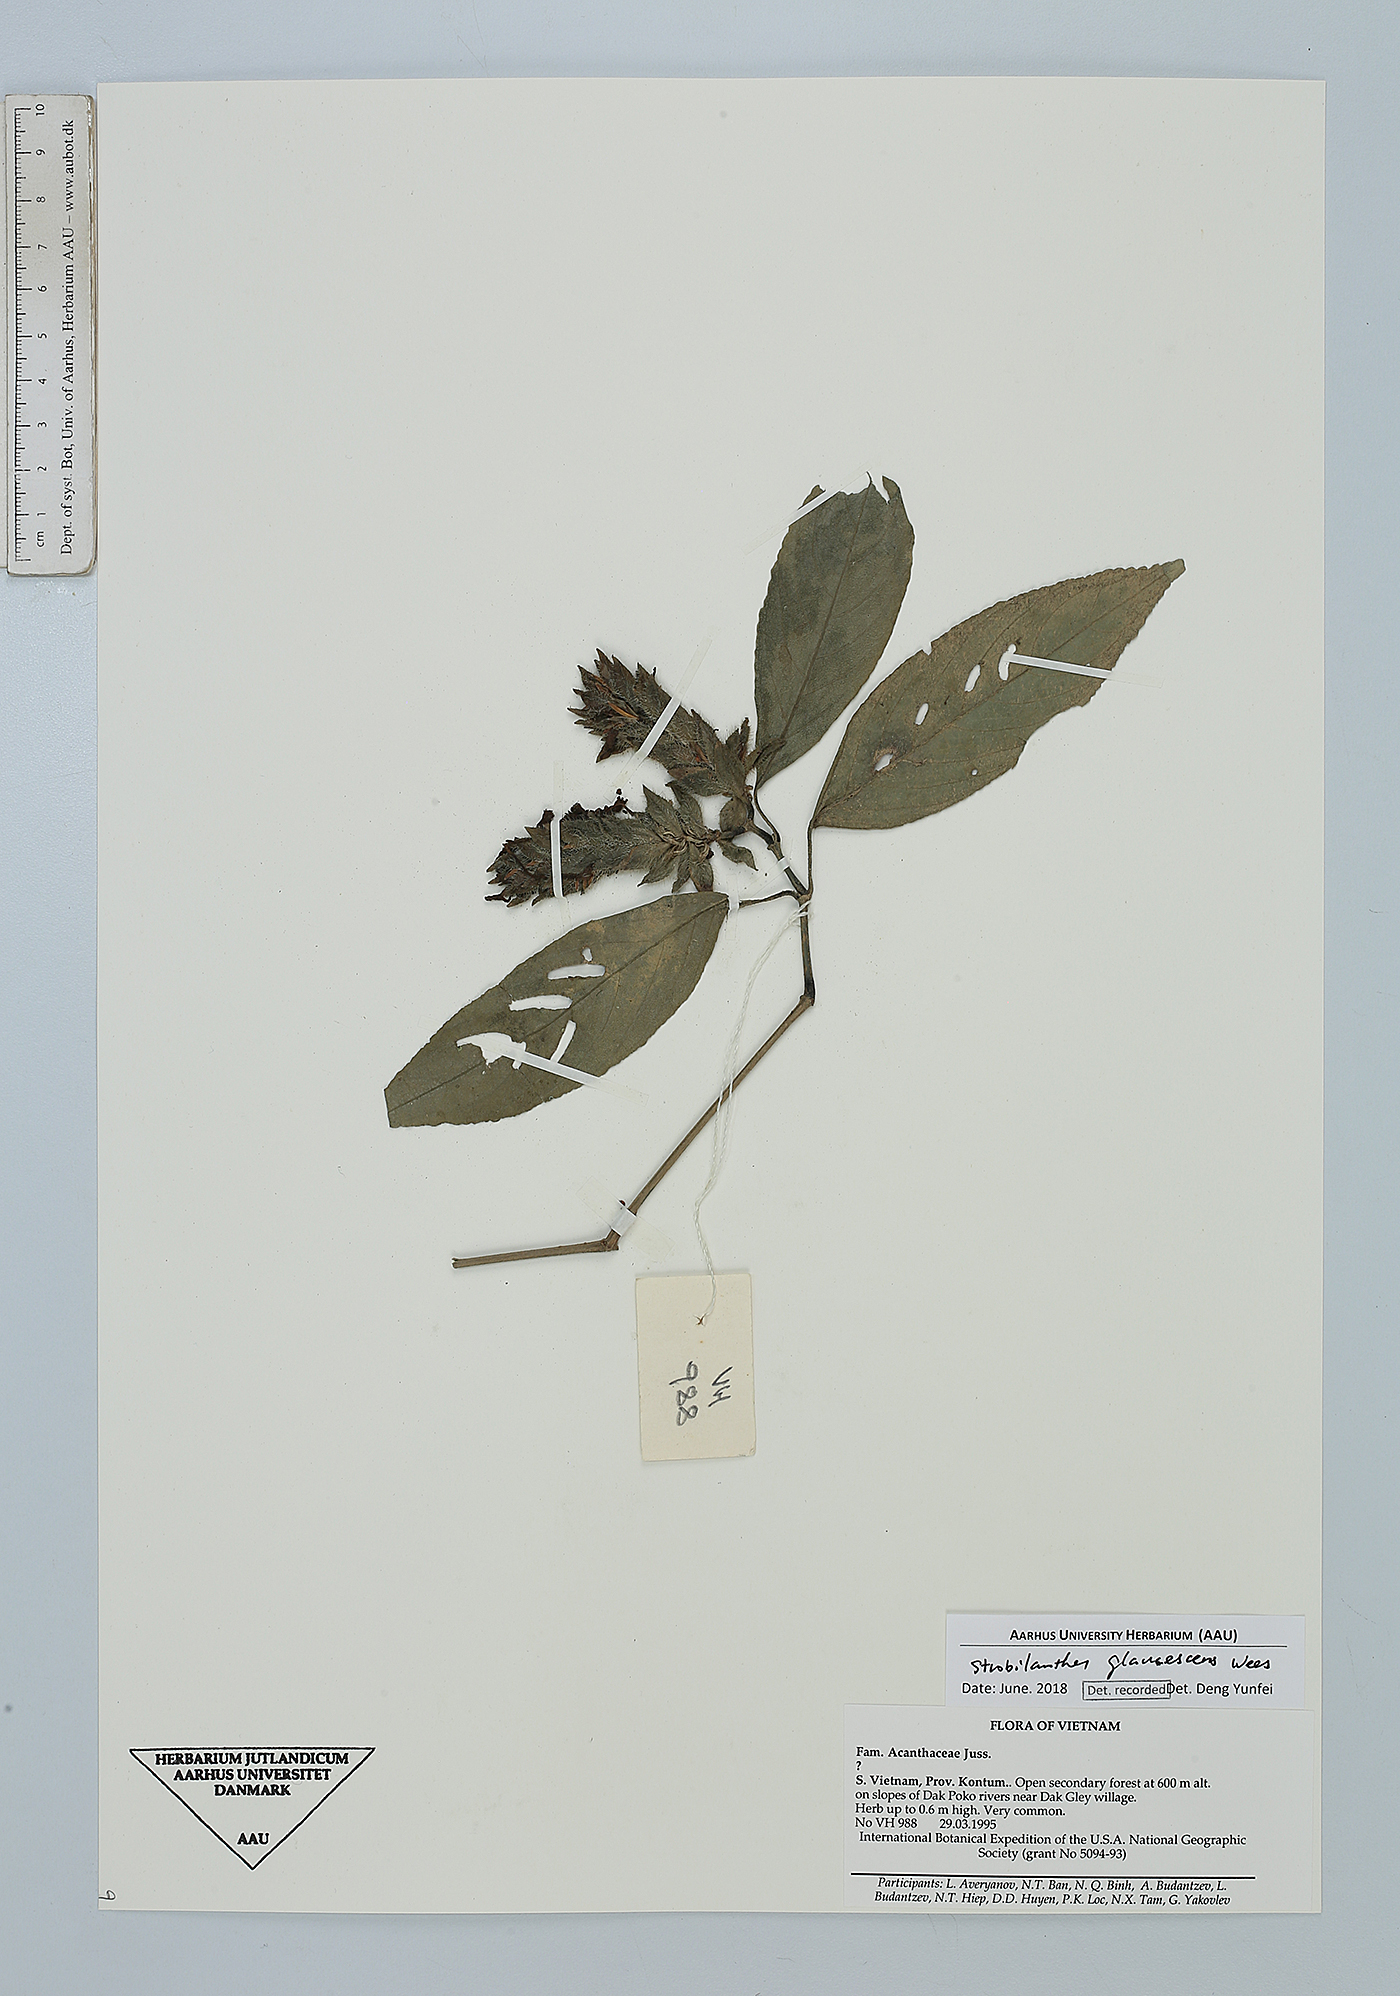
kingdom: Plantae
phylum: Tracheophyta
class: Magnoliopsida
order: Lamiales
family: Acanthaceae
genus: Strobilanthes
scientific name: Strobilanthes glaucescens
